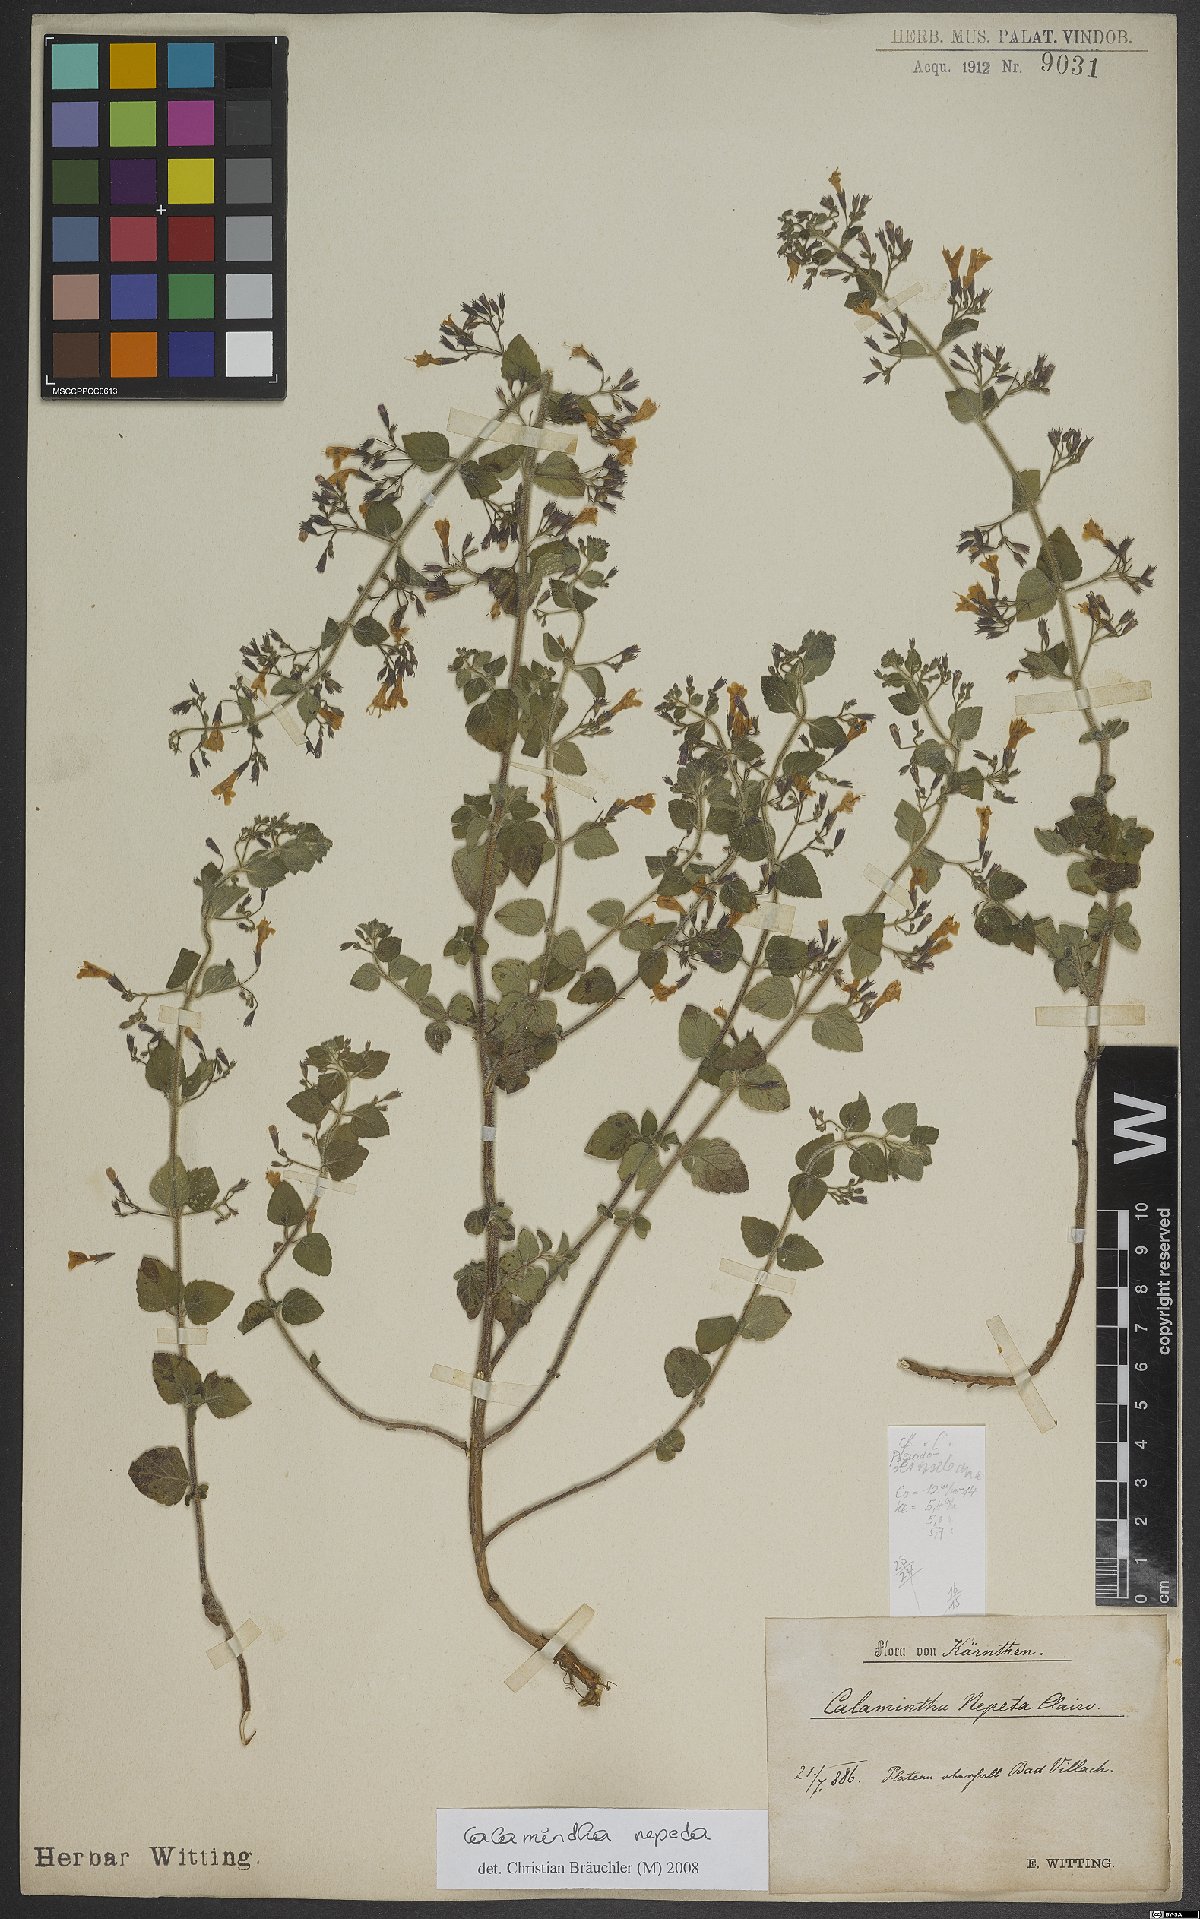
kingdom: Plantae
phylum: Tracheophyta
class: Magnoliopsida
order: Lamiales
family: Lamiaceae
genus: Clinopodium
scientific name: Clinopodium nepeta
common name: Lesser calamint
